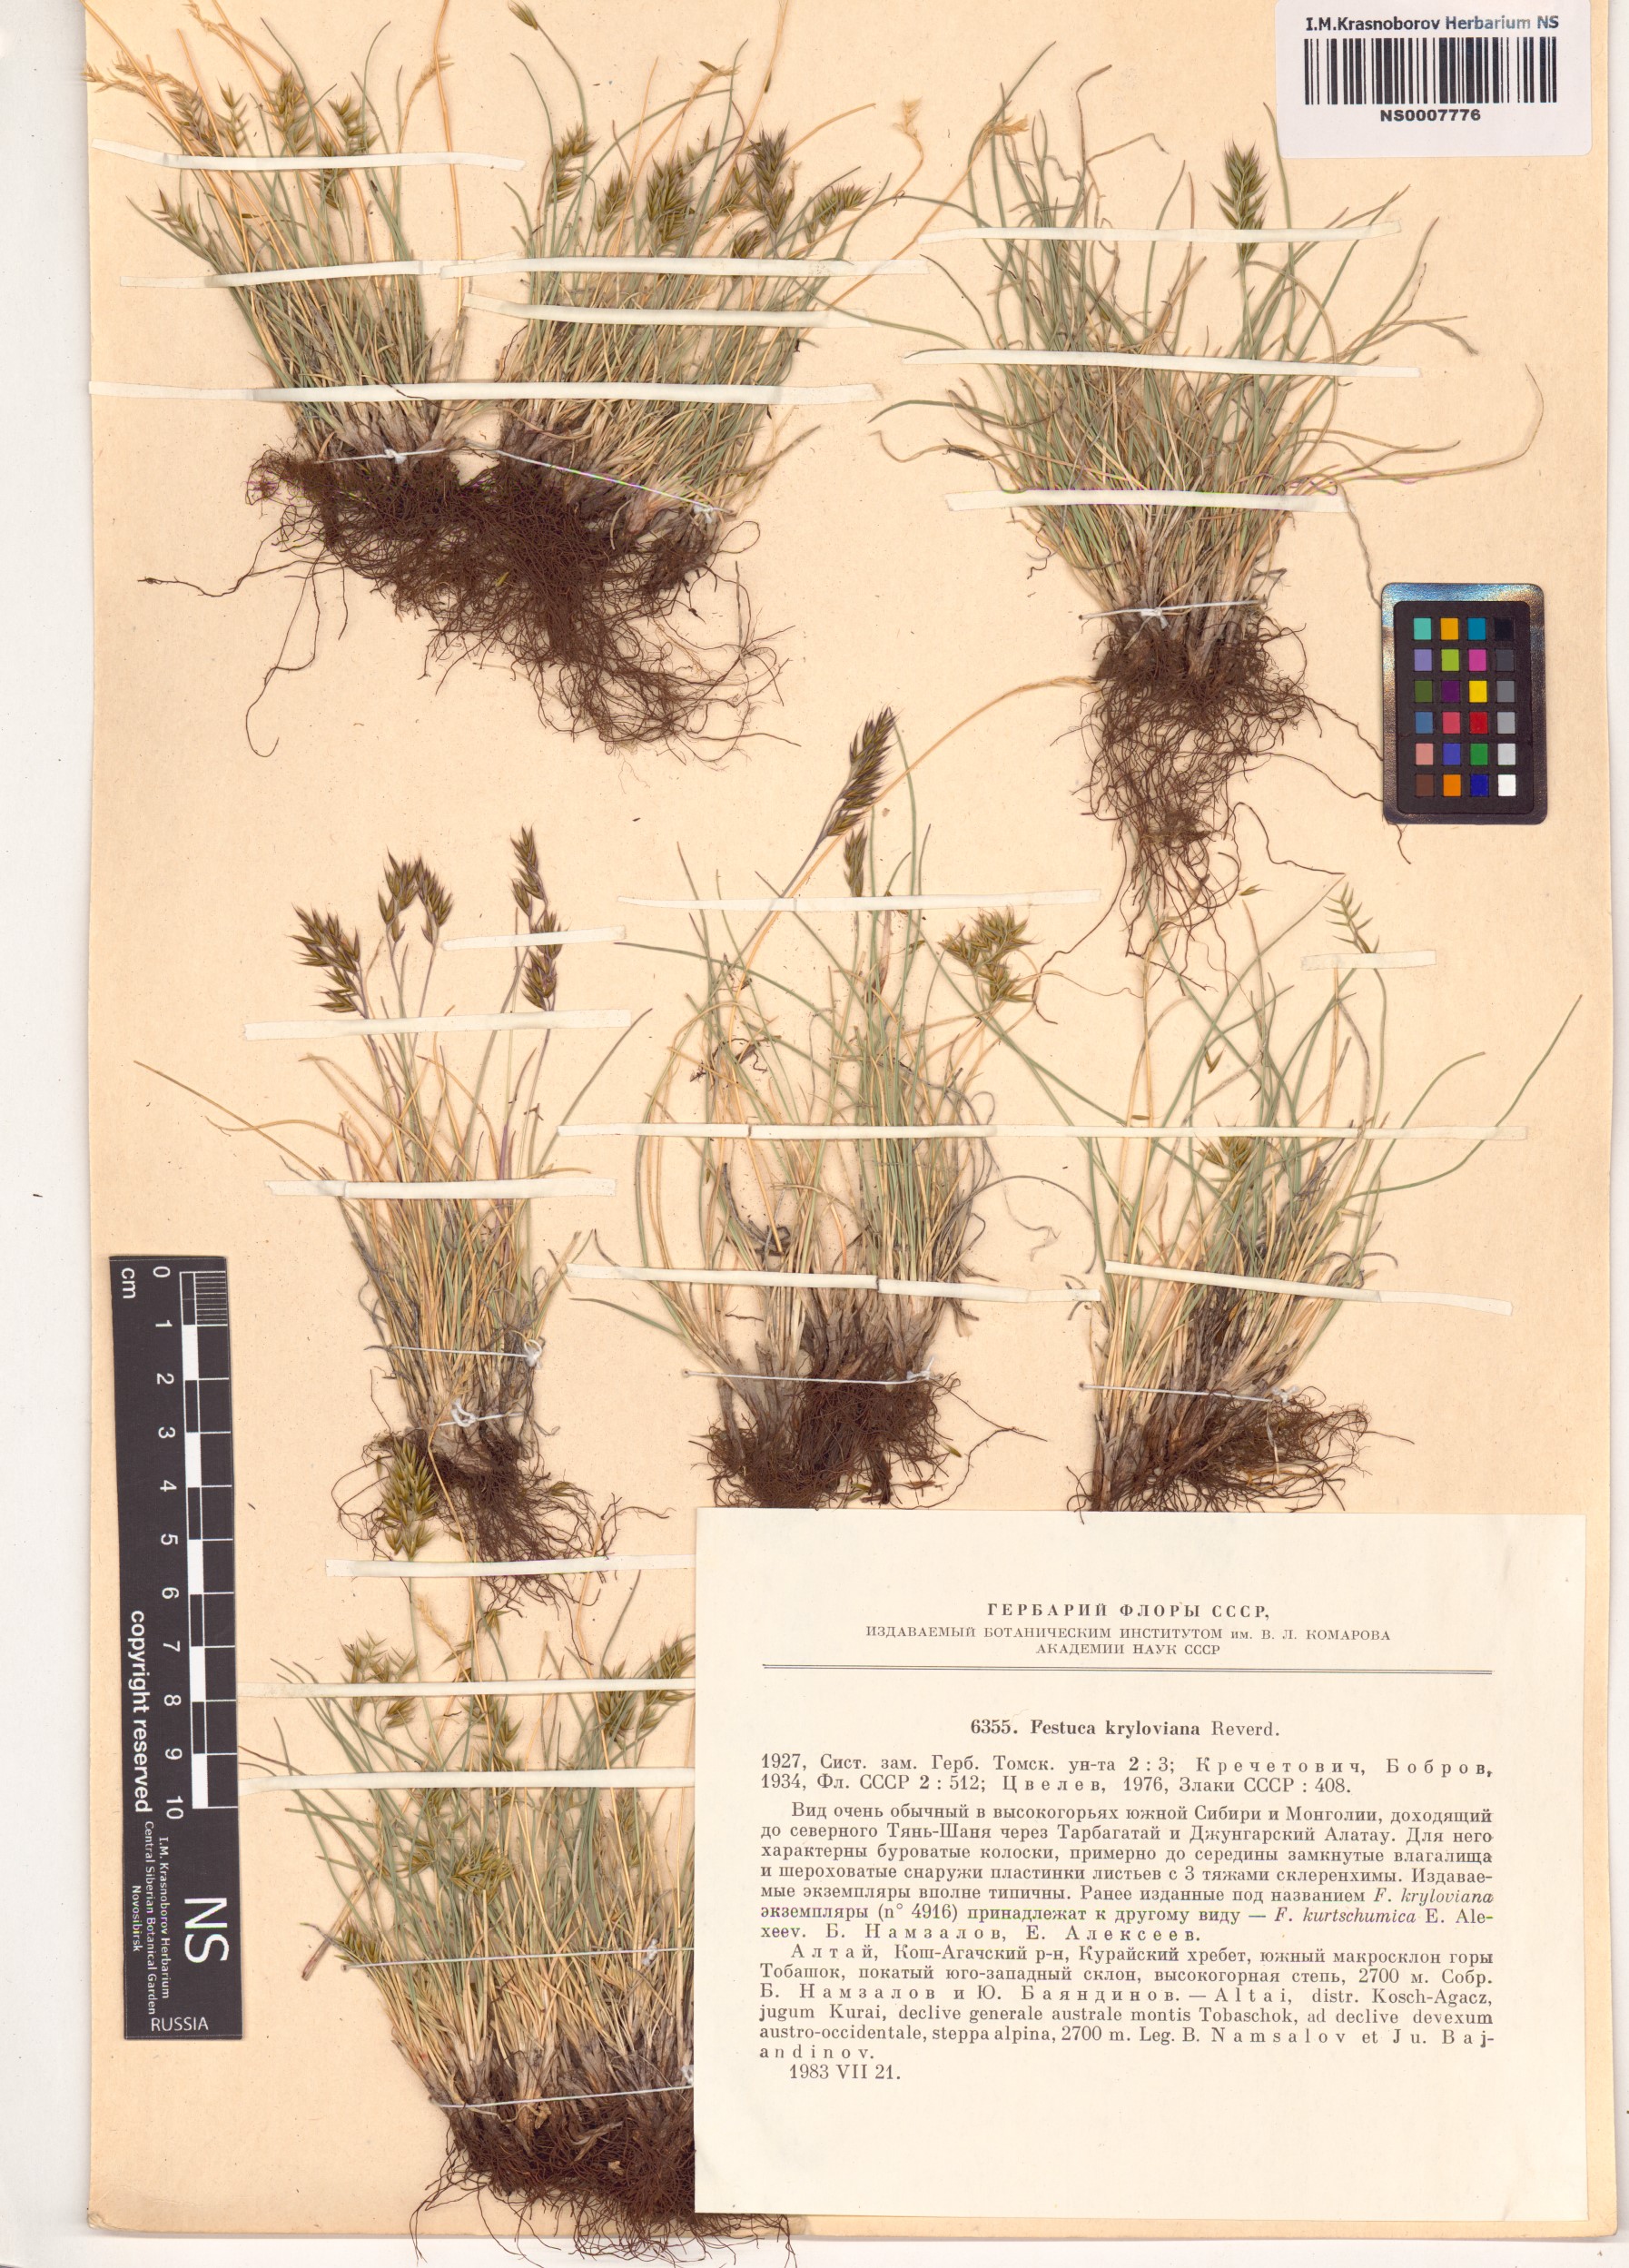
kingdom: Plantae
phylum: Tracheophyta
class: Liliopsida
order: Poales
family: Poaceae
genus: Festuca
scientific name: Festuca kryloviana
